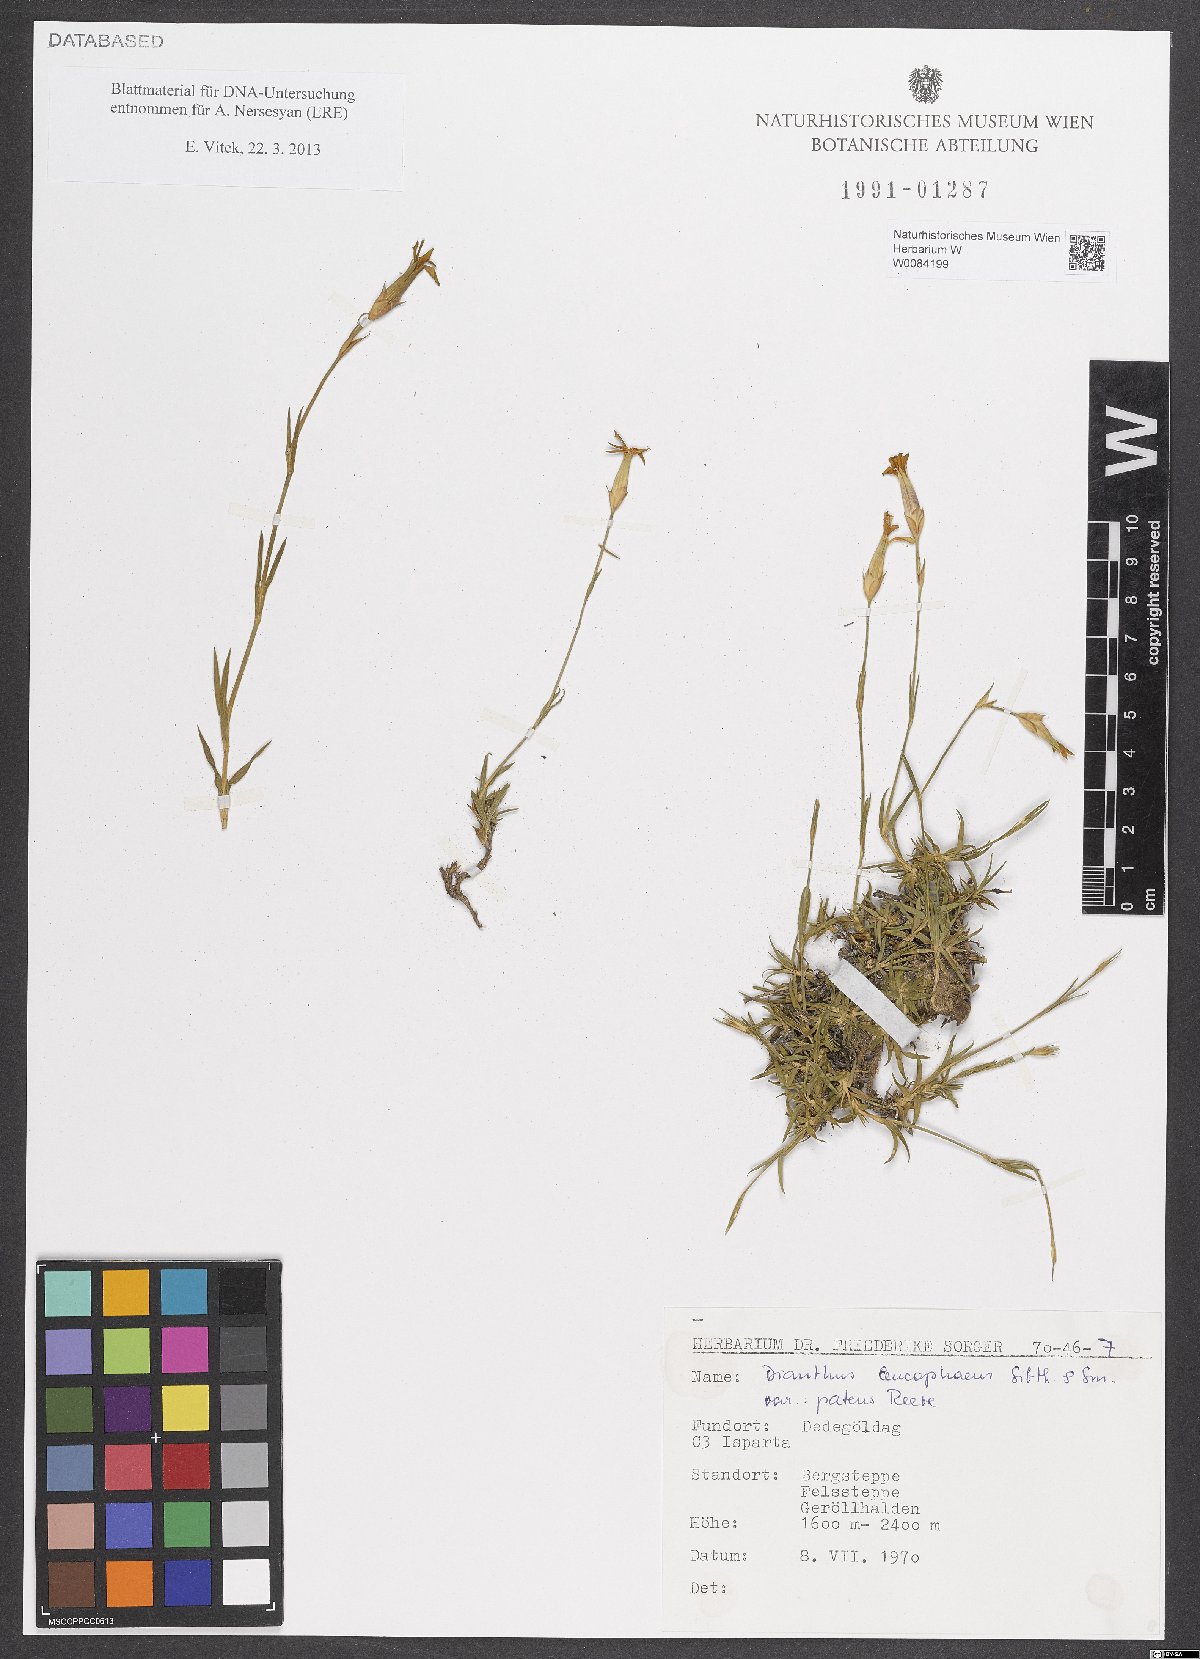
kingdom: Plantae
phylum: Tracheophyta
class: Magnoliopsida
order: Caryophyllales
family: Caryophyllaceae
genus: Dianthus
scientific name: Dianthus goerkii
